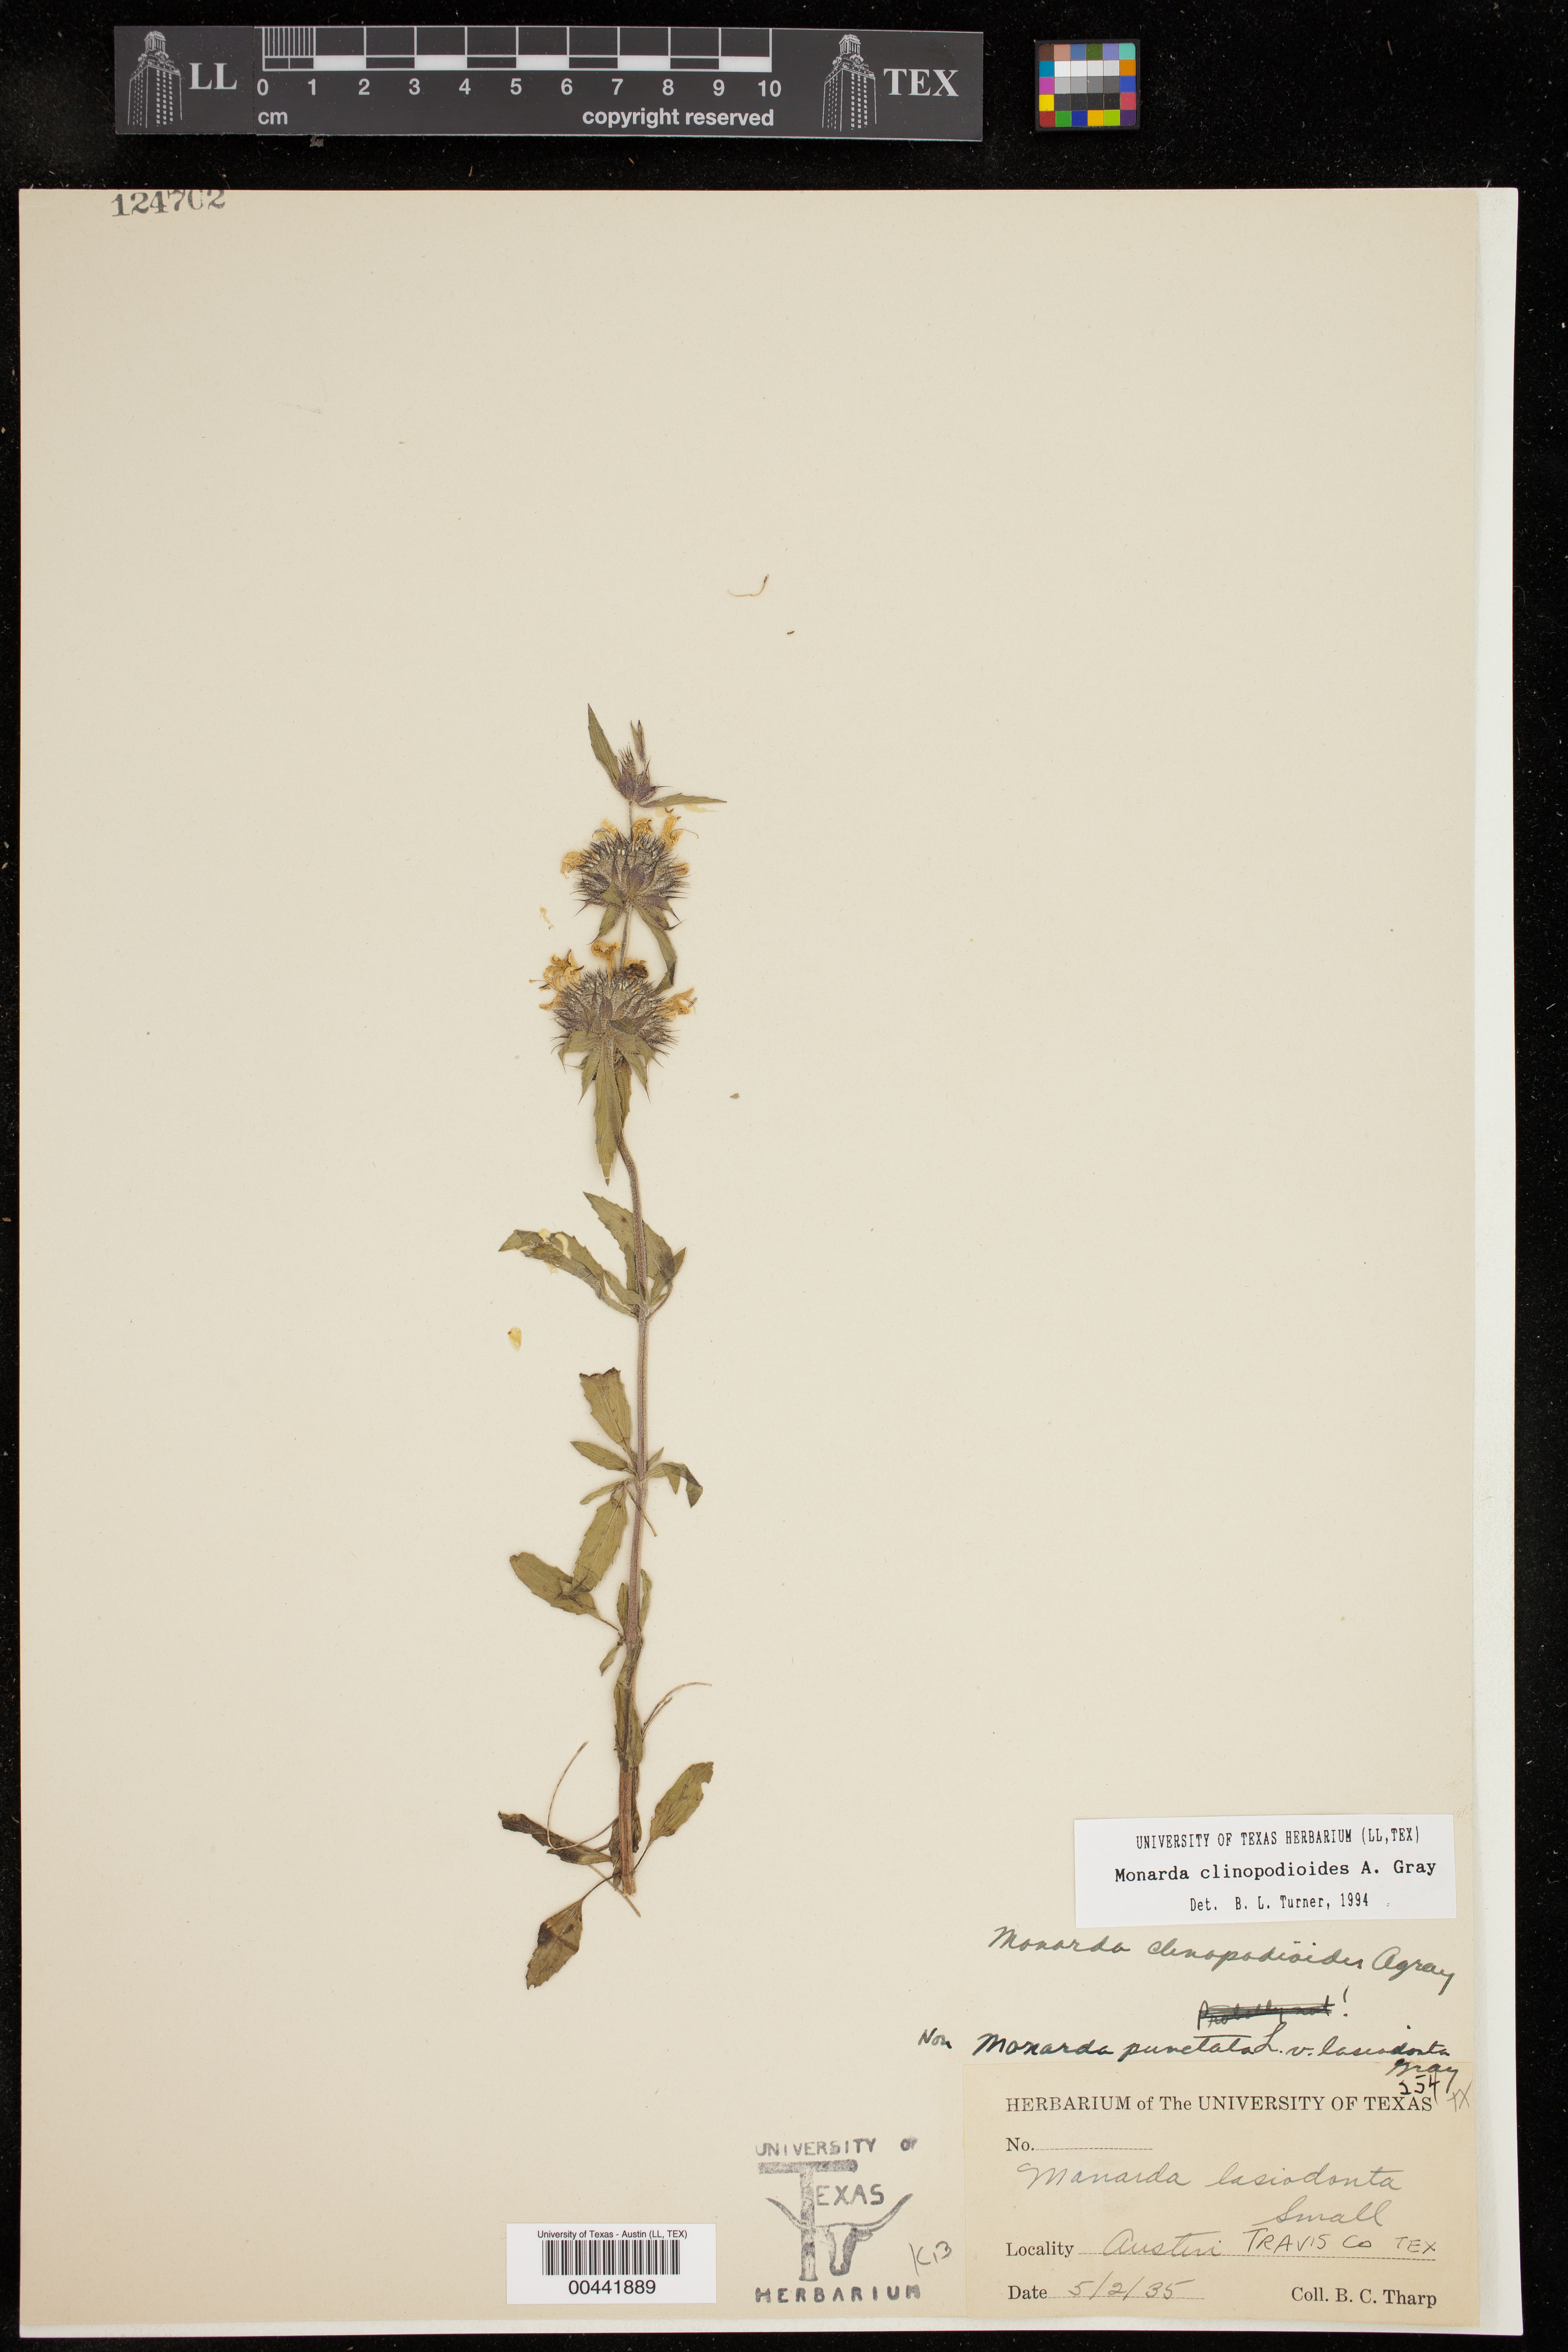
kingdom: Plantae
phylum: Tracheophyta
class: Magnoliopsida
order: Lamiales
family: Lamiaceae
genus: Monarda
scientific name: Monarda clinopodioides
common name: Basil beebalm
